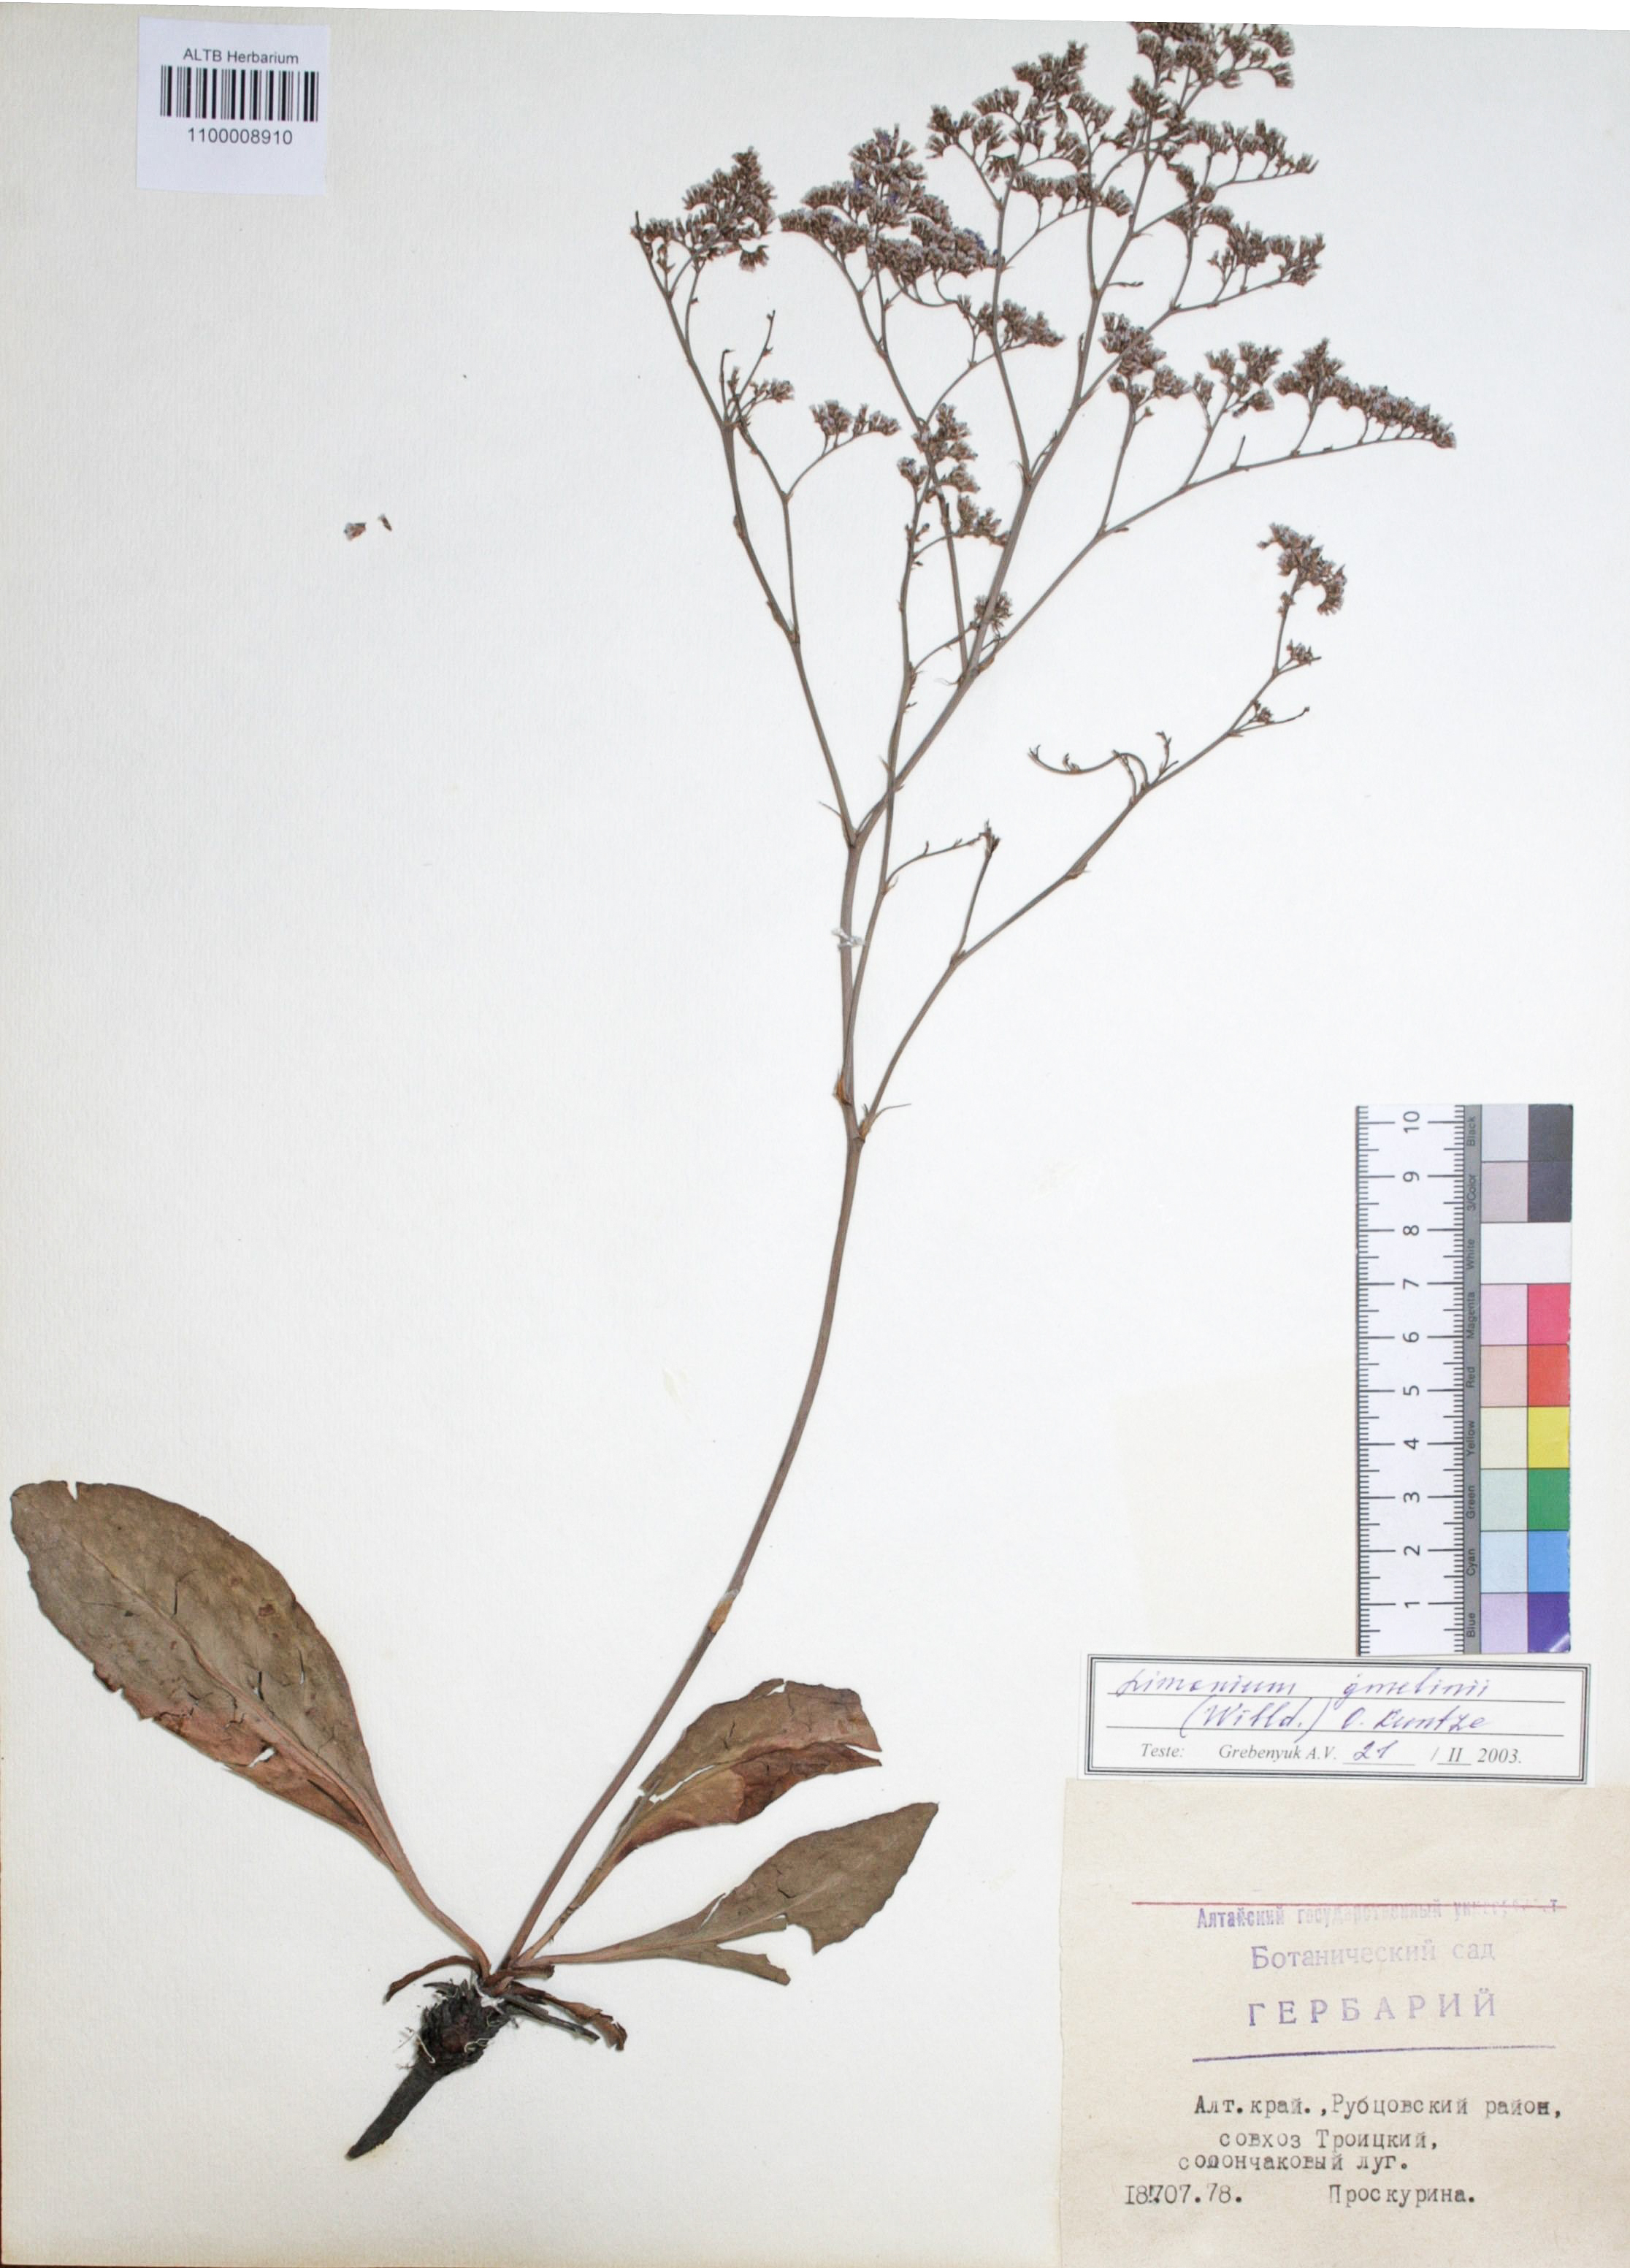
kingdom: Plantae
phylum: Tracheophyta
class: Magnoliopsida
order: Caryophyllales
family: Plumbaginaceae
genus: Limonium
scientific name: Limonium gmelini
